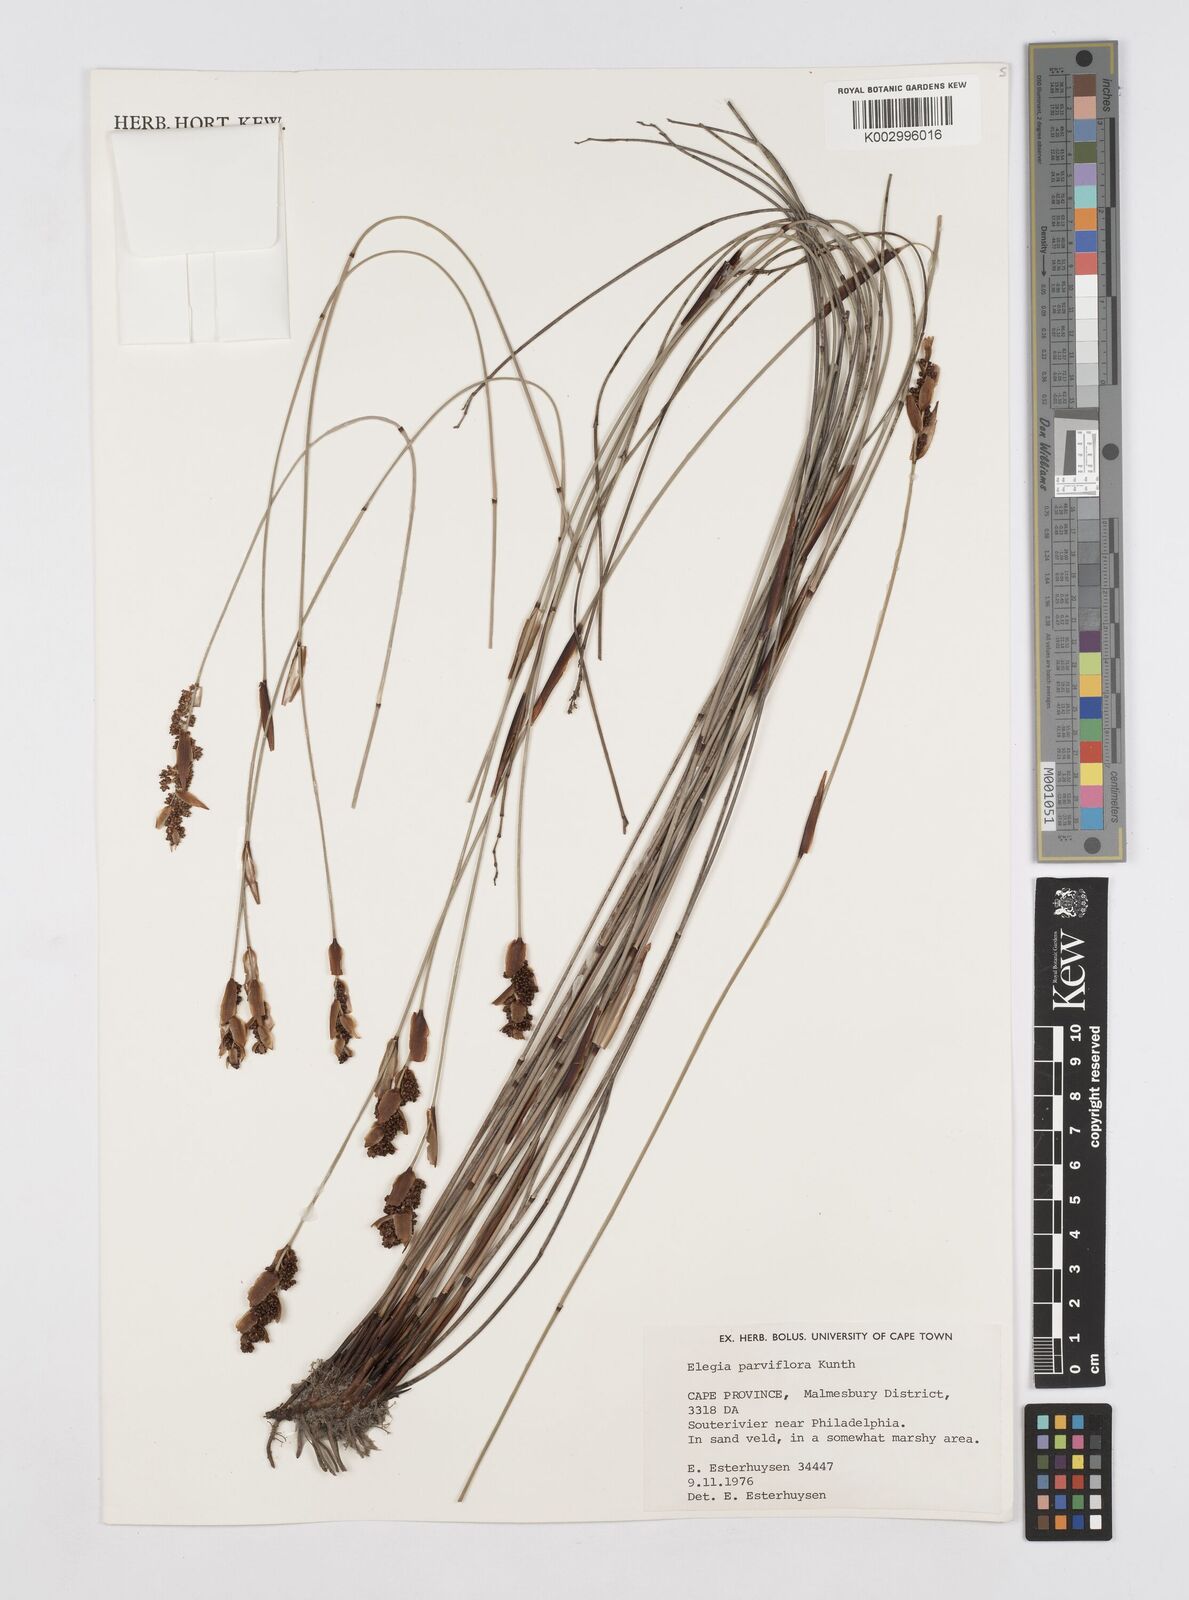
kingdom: Plantae
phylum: Tracheophyta
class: Liliopsida
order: Poales
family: Restionaceae
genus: Cannomois
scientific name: Cannomois parviflora
